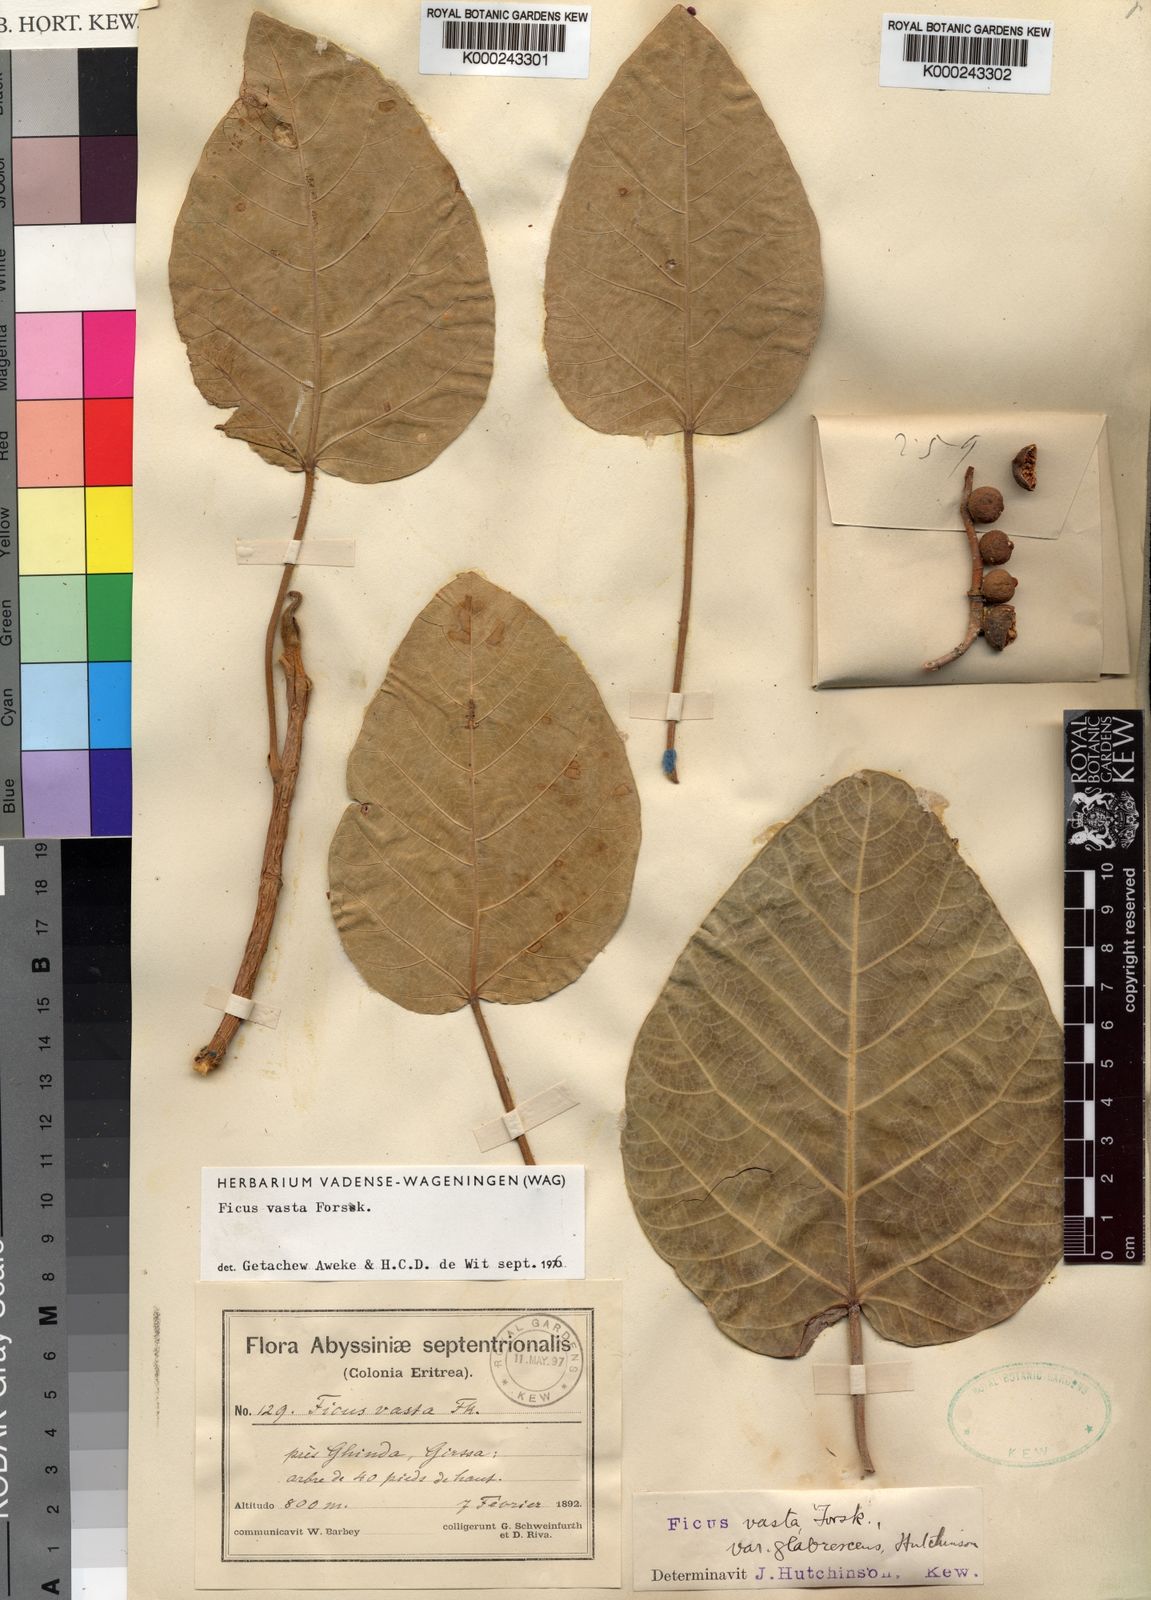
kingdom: Plantae
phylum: Tracheophyta
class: Magnoliopsida
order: Rosales
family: Moraceae
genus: Ficus
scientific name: Ficus
